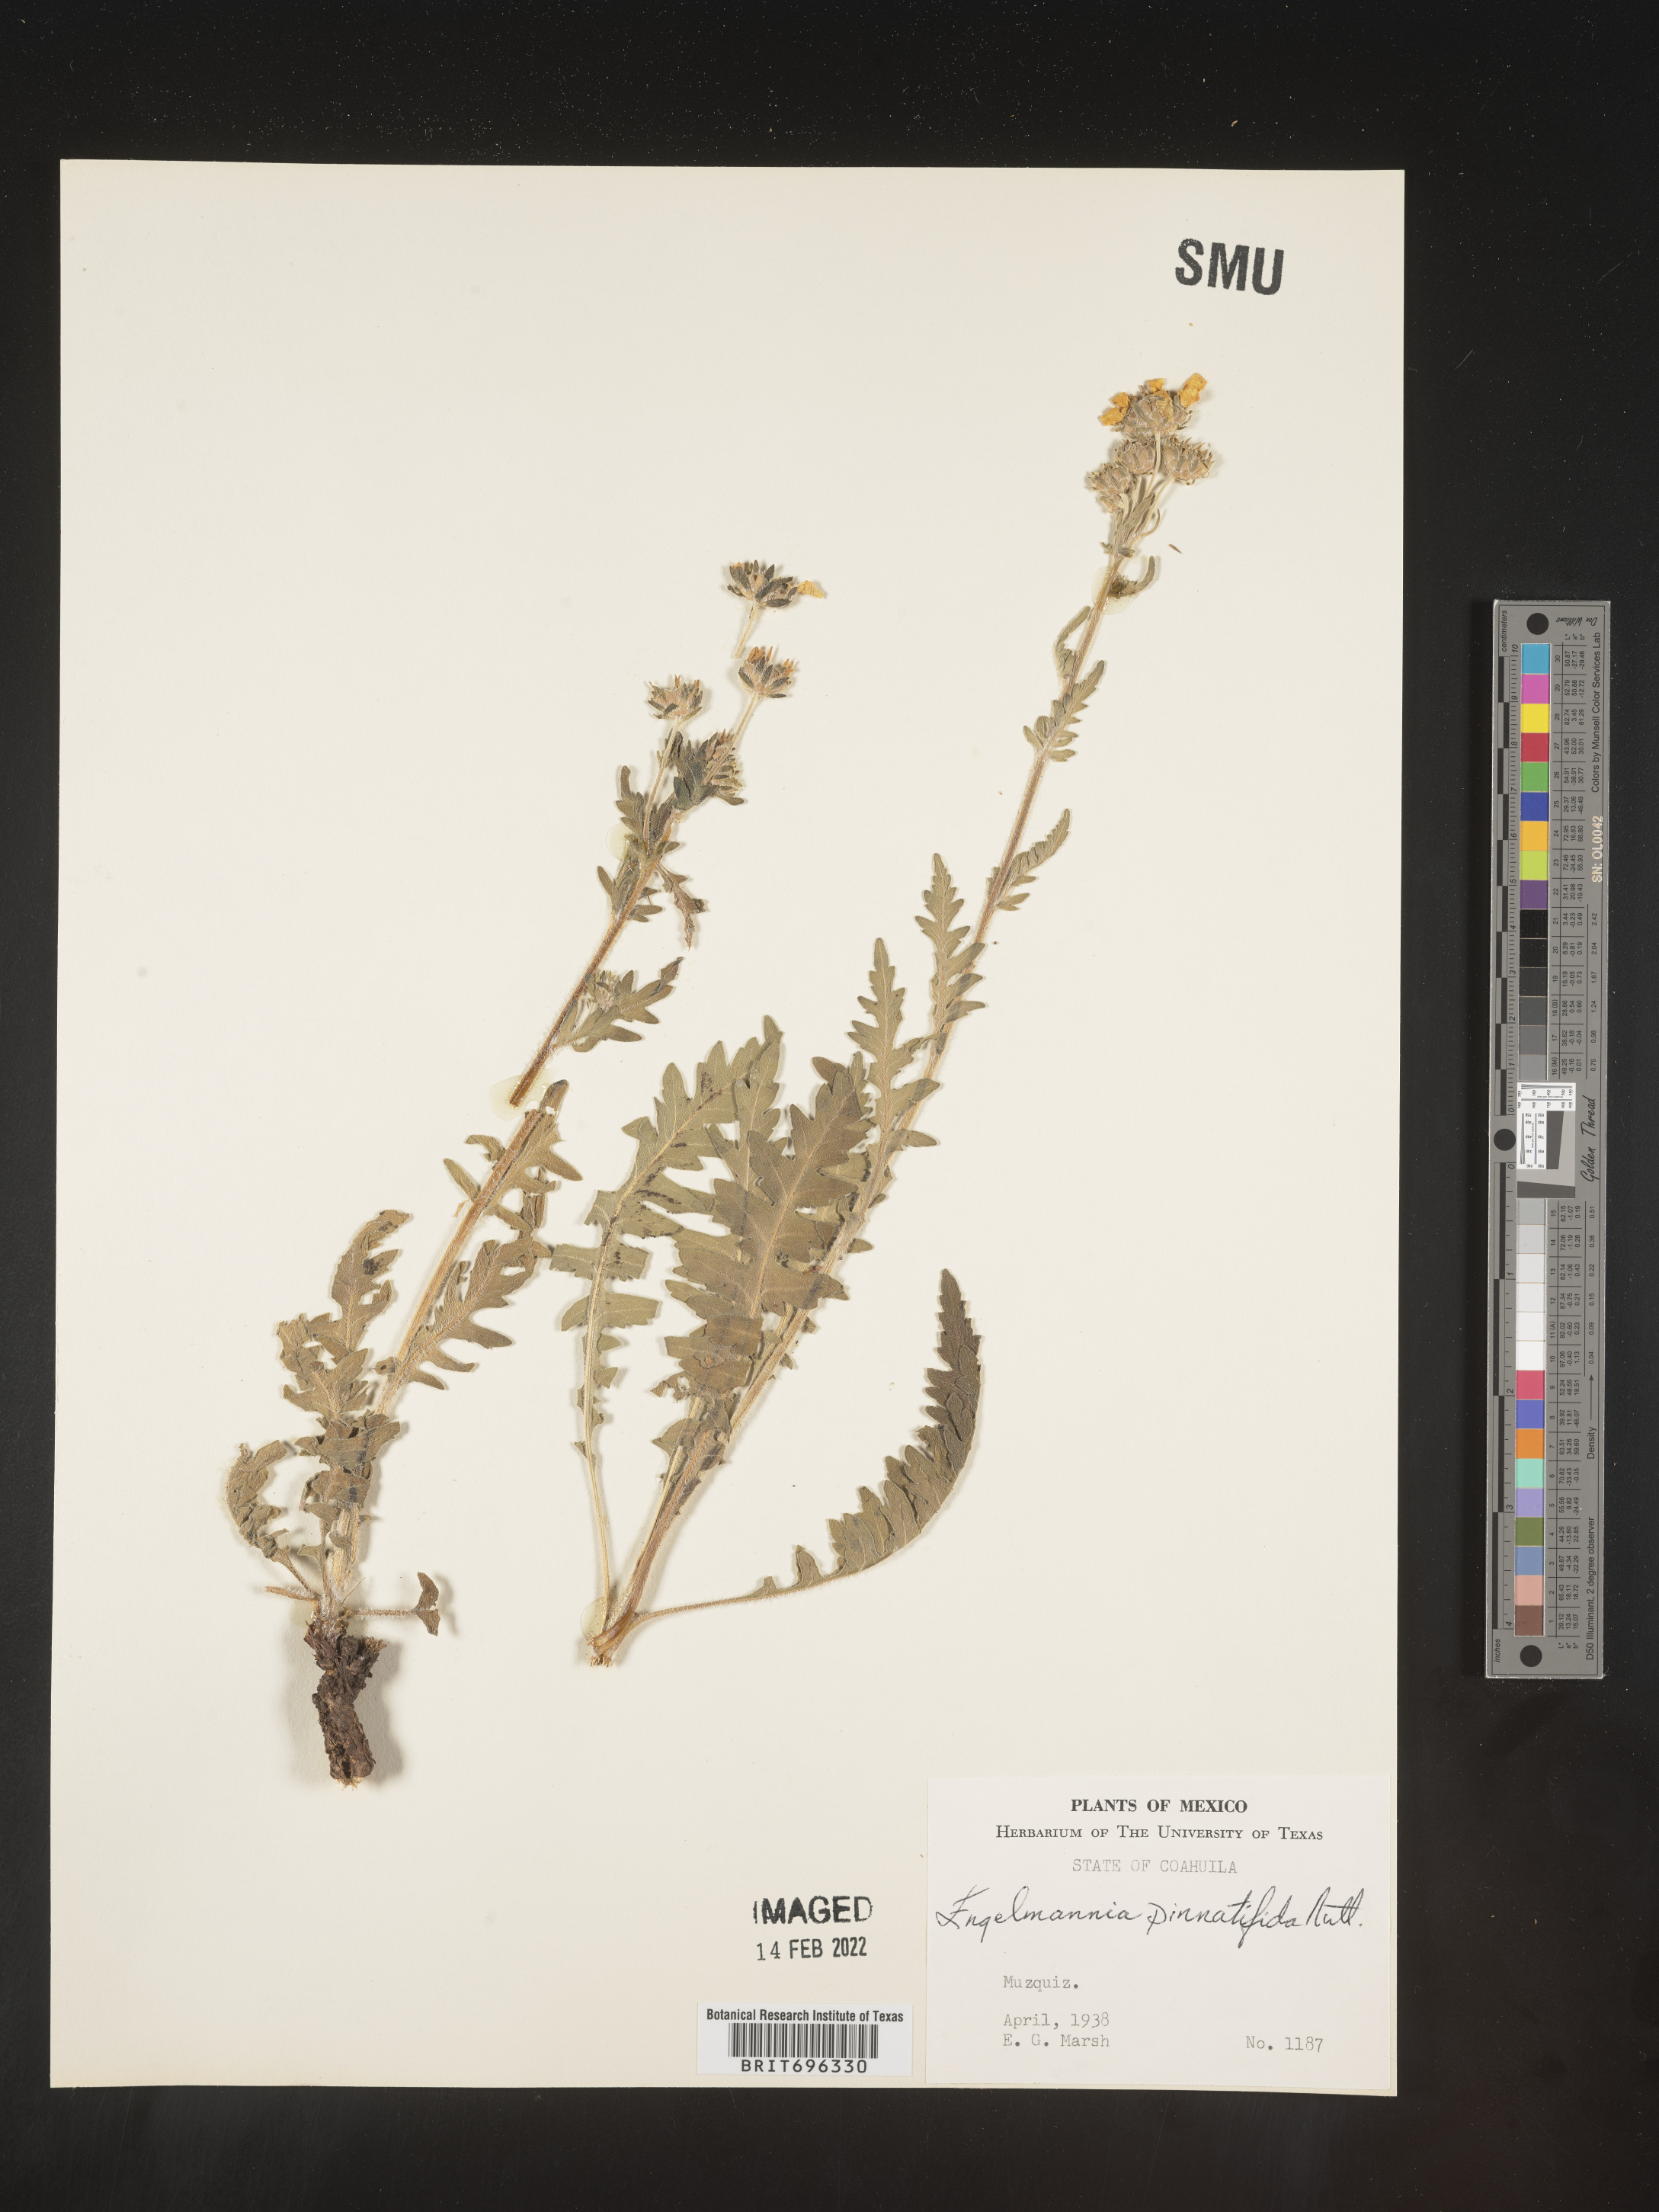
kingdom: Plantae
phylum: Tracheophyta
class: Magnoliopsida
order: Asterales
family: Asteraceae
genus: Engelmannia
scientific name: Engelmannia
